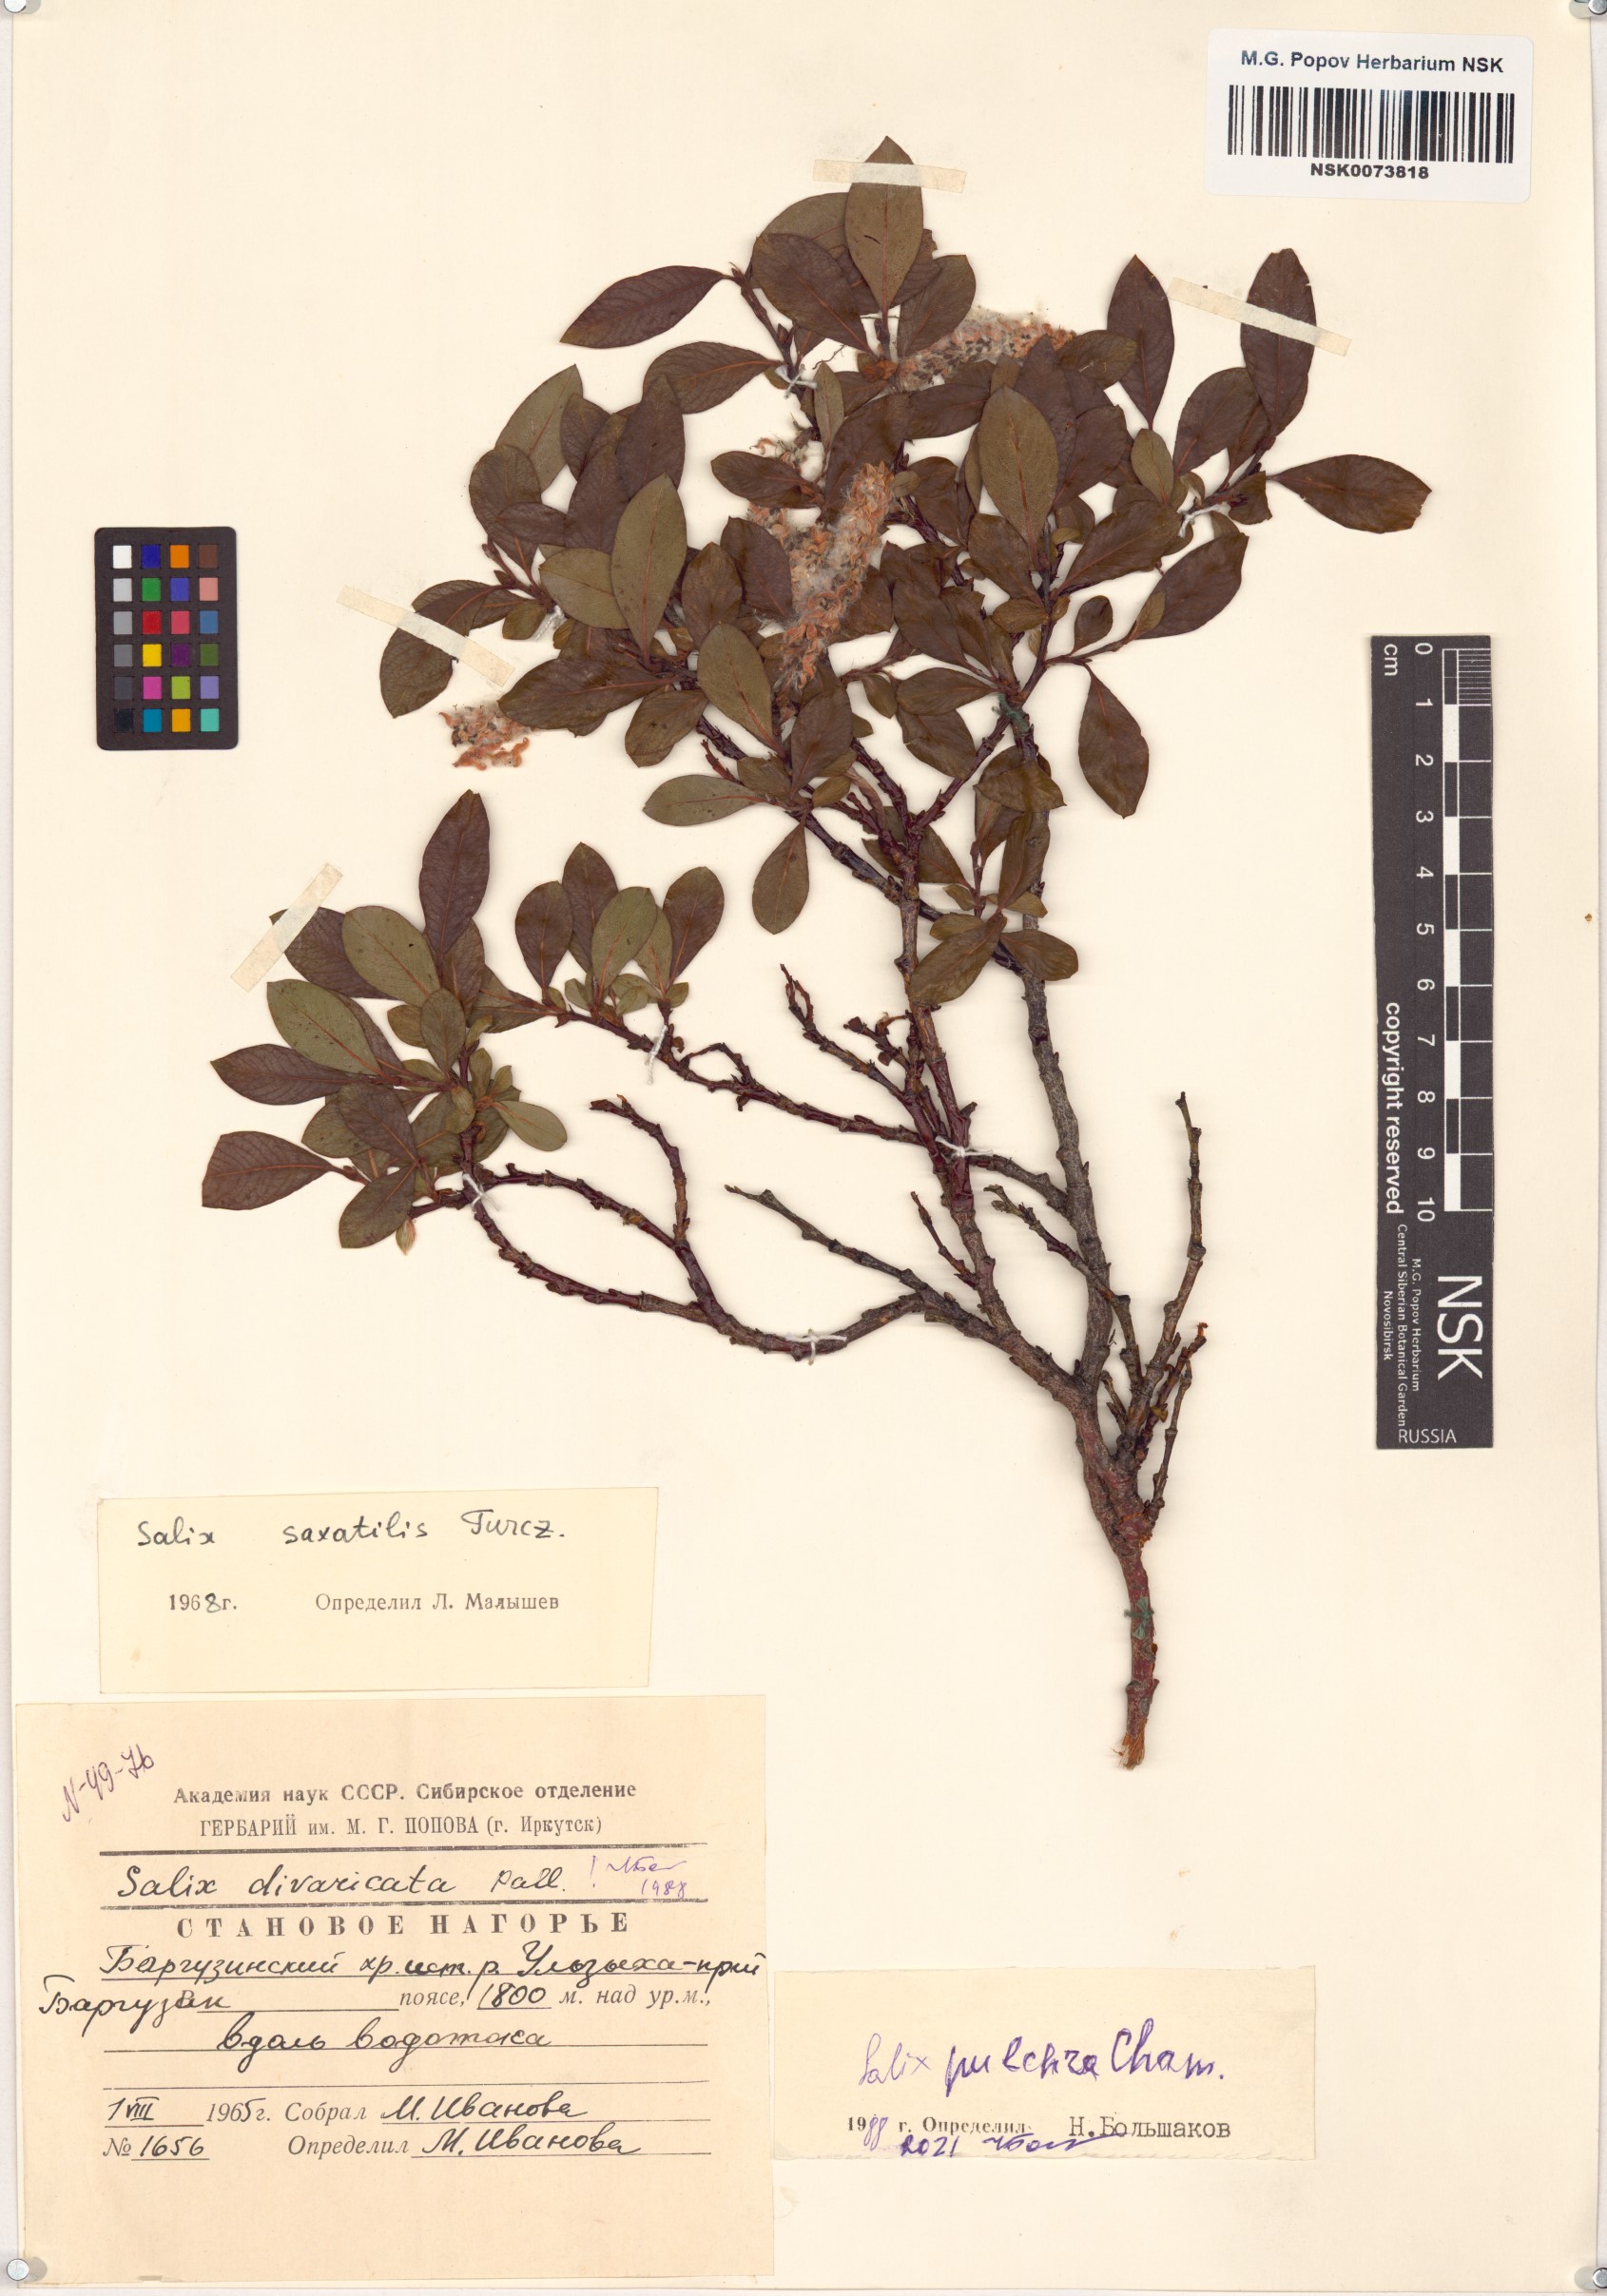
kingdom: Plantae
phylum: Tracheophyta
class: Magnoliopsida
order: Malpighiales
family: Salicaceae
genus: Salix
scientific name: Salix pulchra
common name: Diamond-leaved willow
